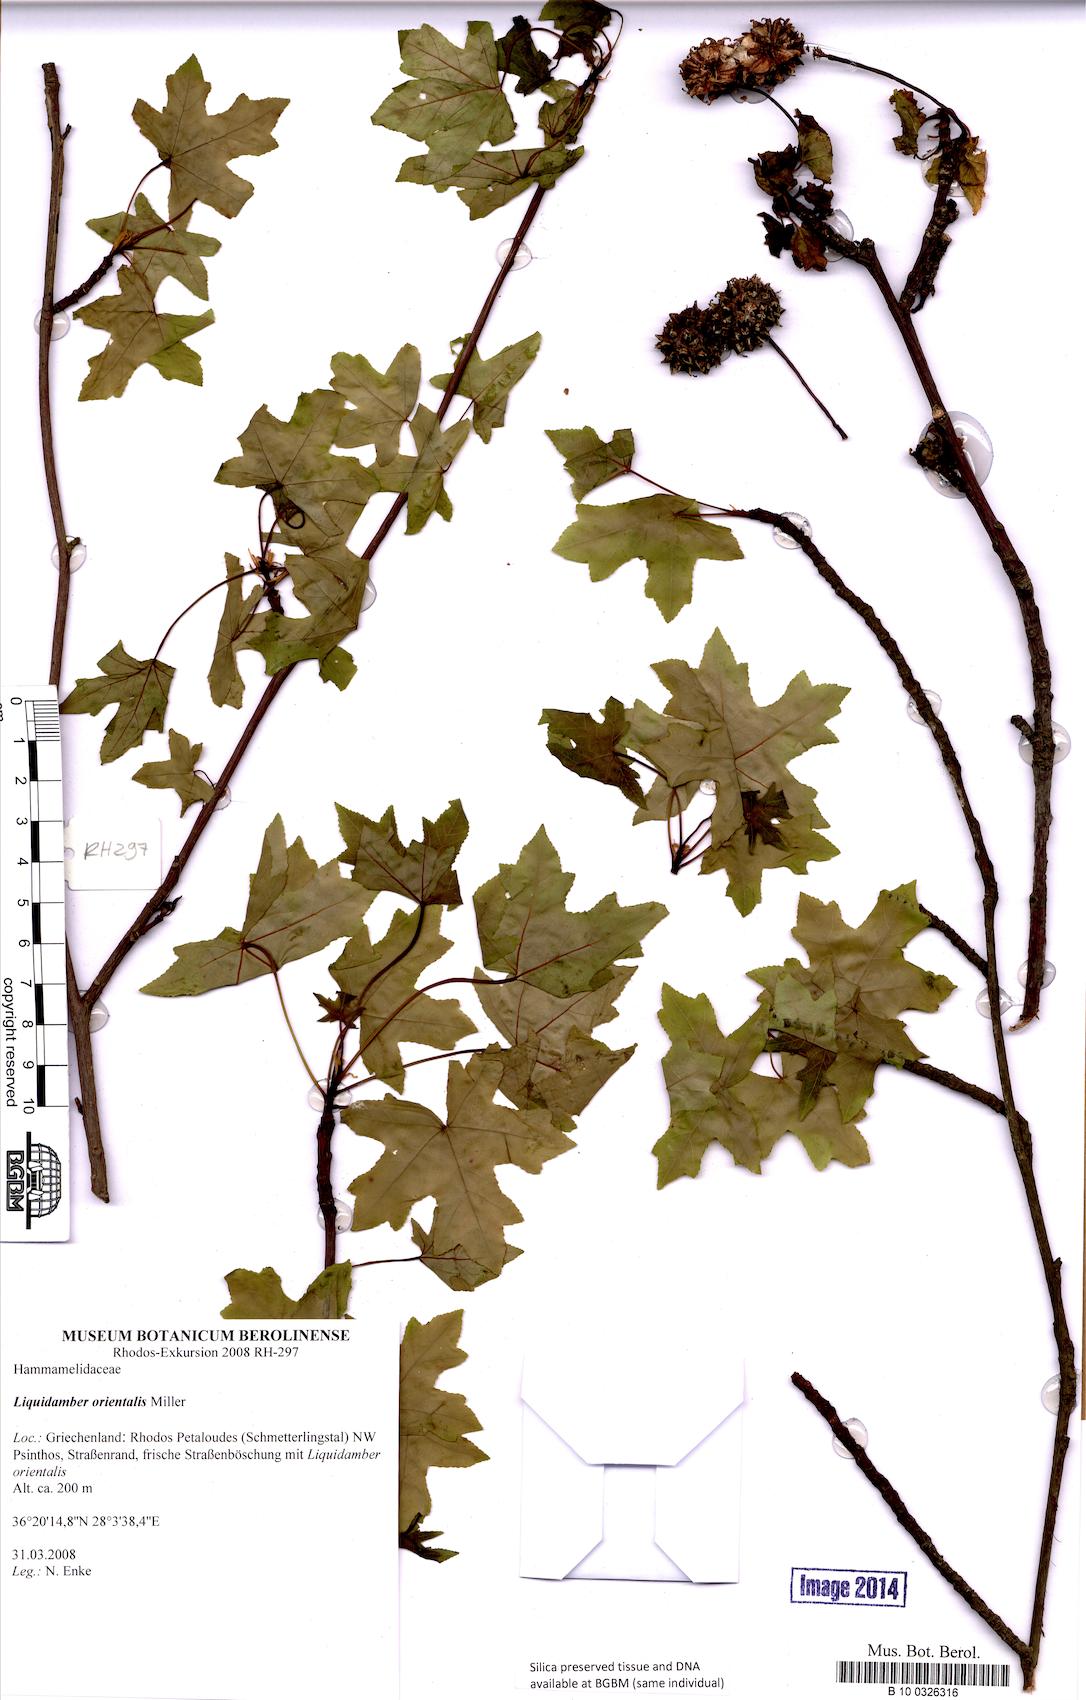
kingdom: Plantae
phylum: Tracheophyta
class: Magnoliopsida
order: Saxifragales
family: Altingiaceae
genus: Liquidambar
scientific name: Liquidambar orientalis
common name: Oriental sweetgum
